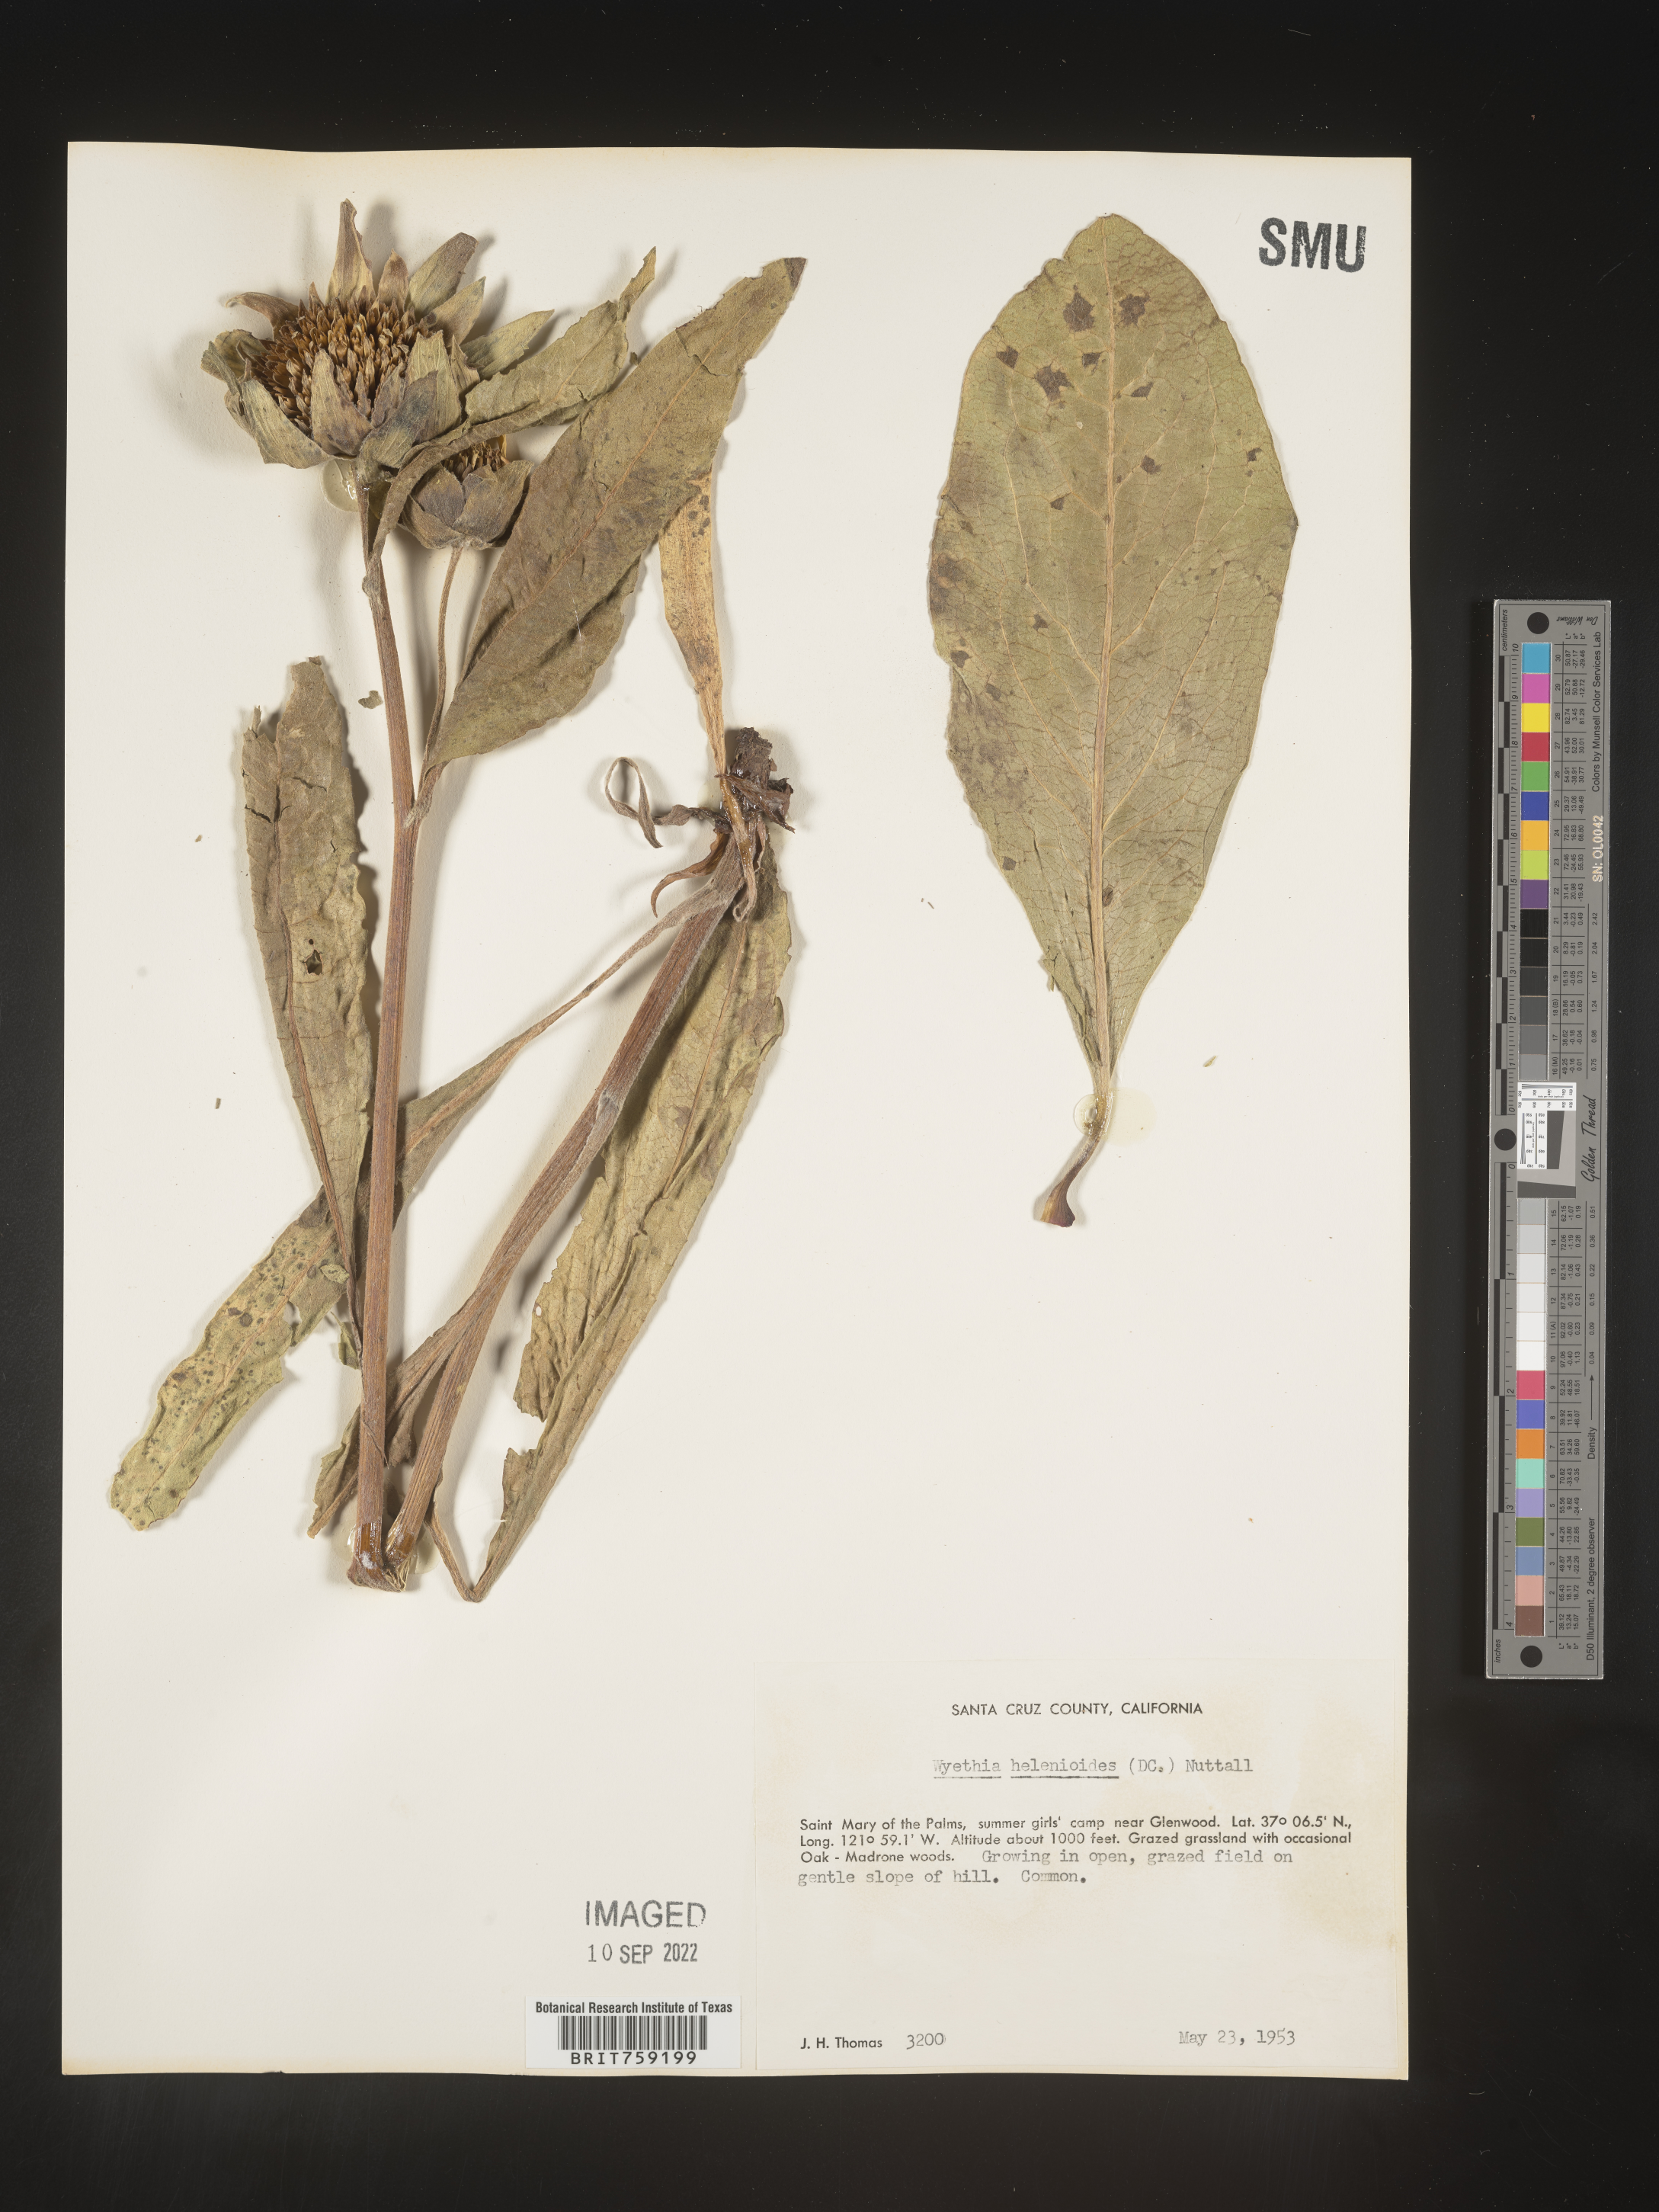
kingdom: Plantae
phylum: Tracheophyta
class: Magnoliopsida
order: Asterales
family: Asteraceae
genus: Wyethia
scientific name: Wyethia helenioides
